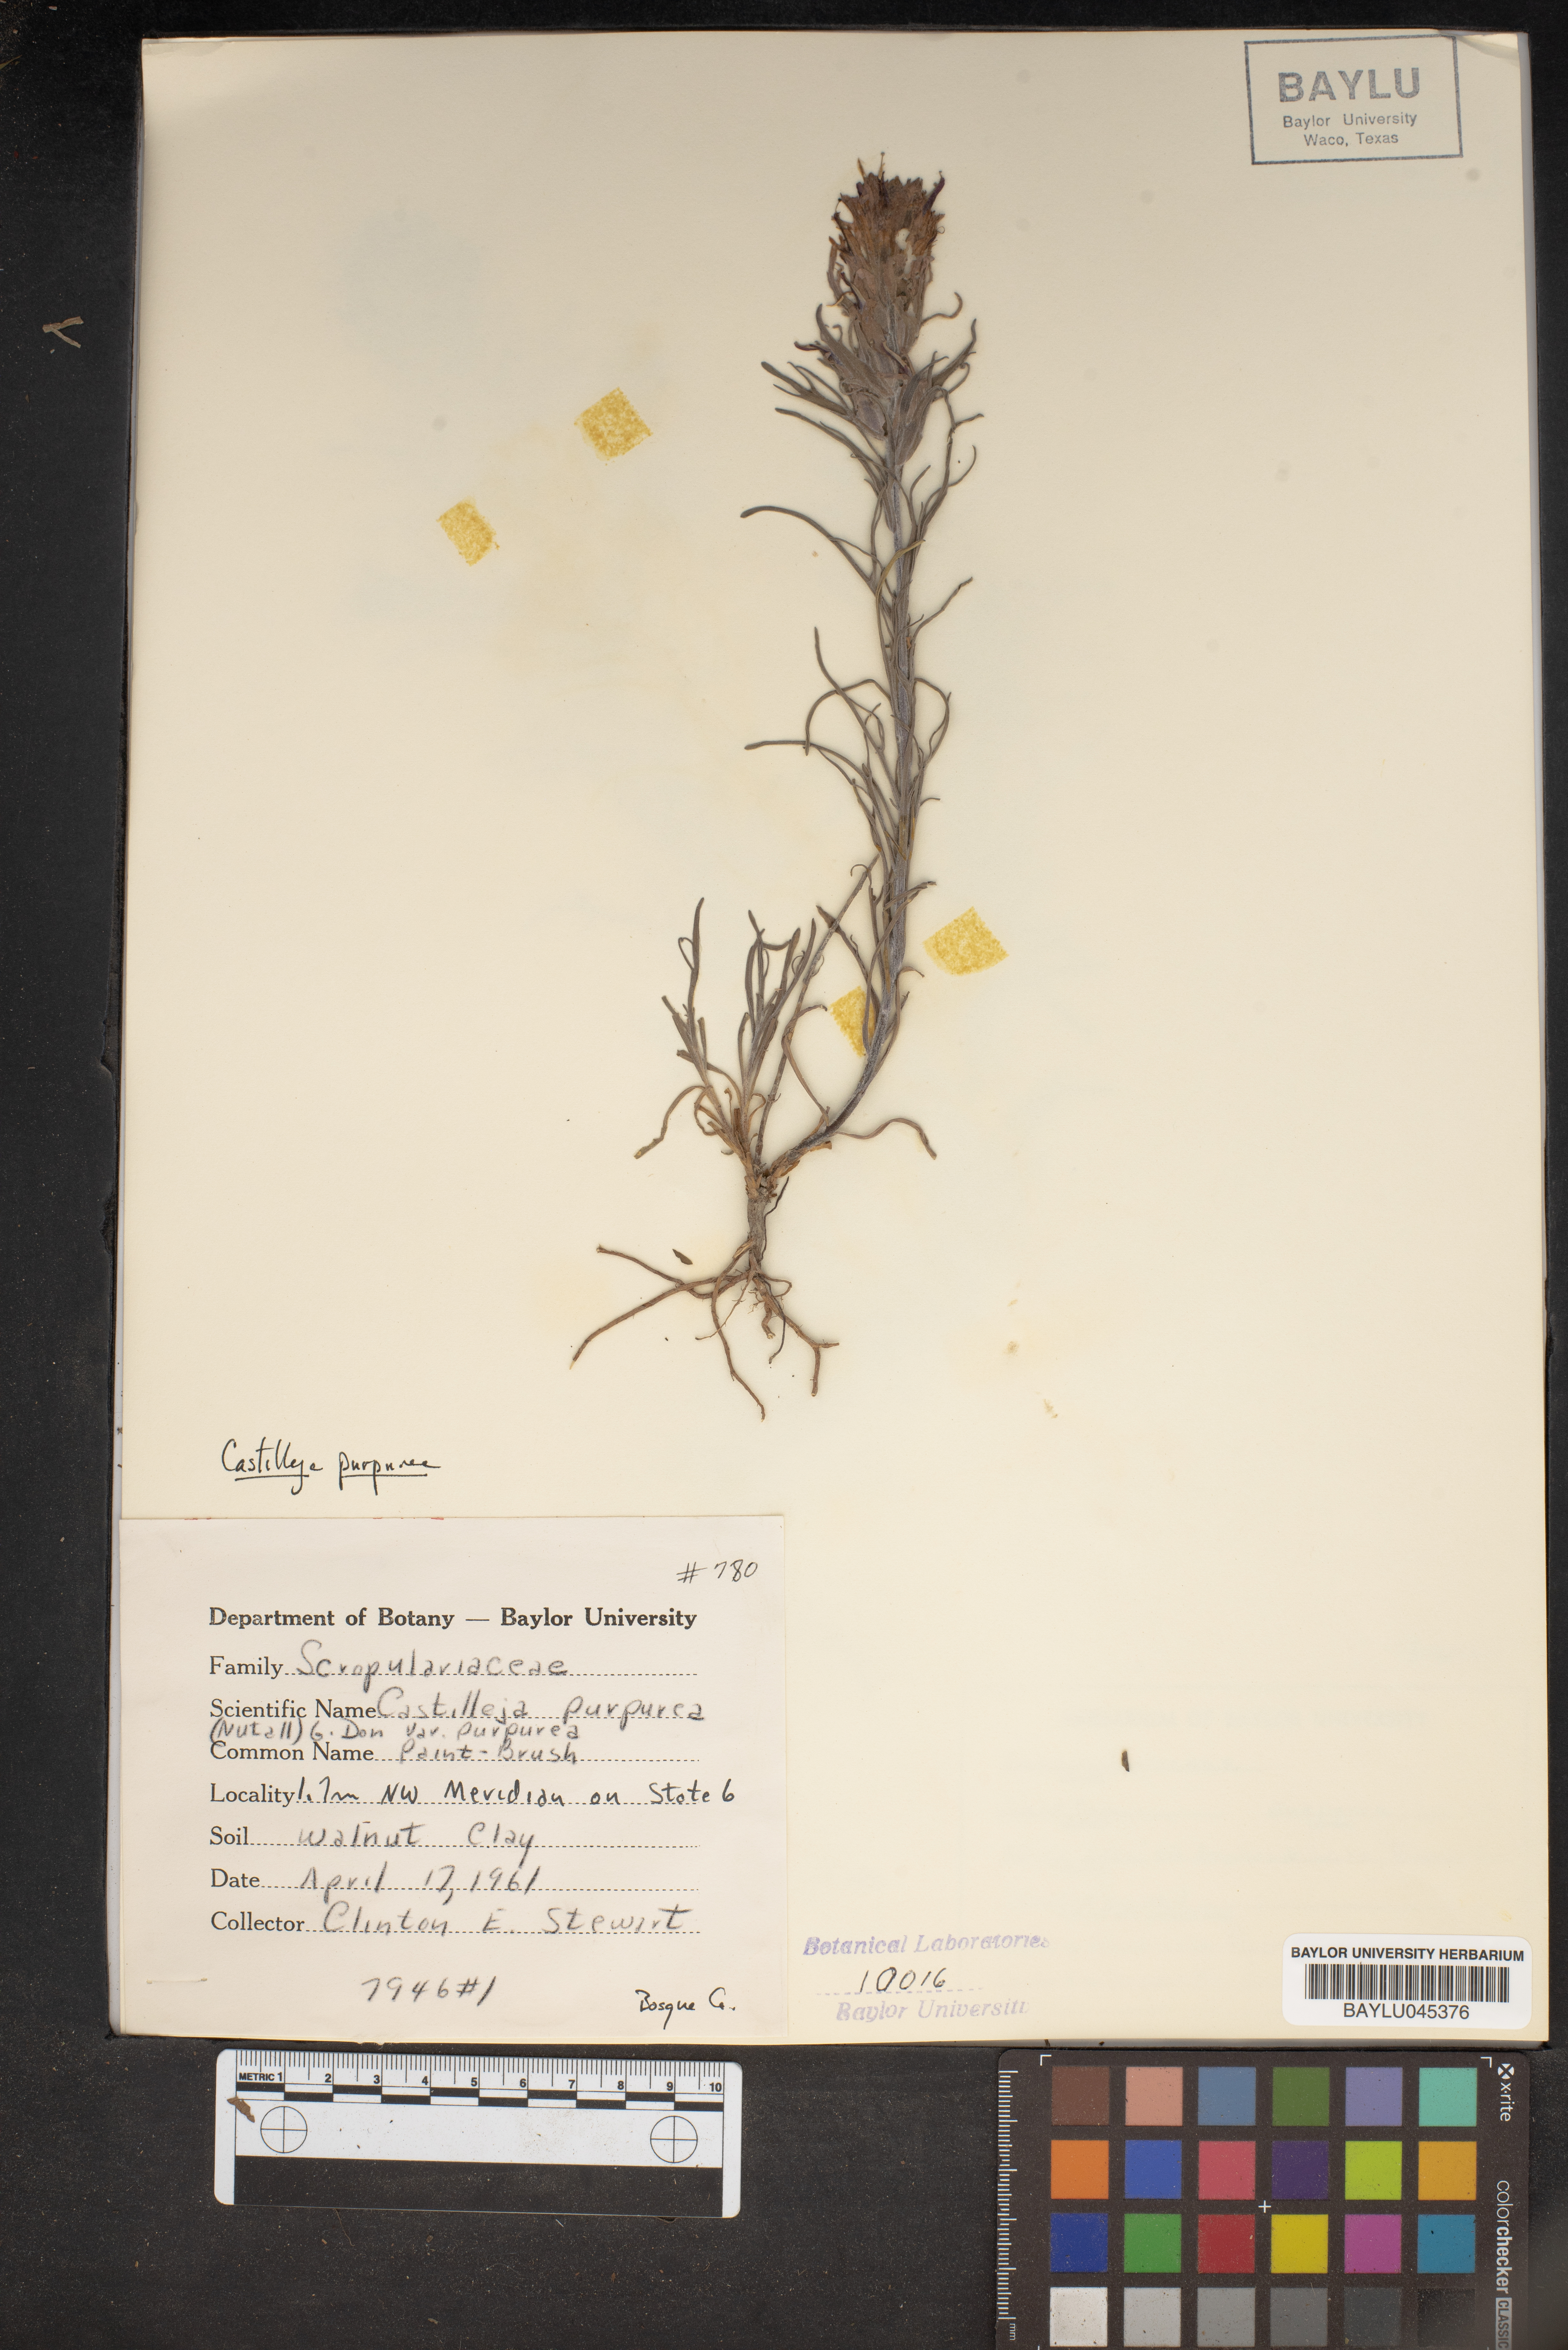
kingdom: Plantae
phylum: Tracheophyta
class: Magnoliopsida
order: Lamiales
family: Orobanchaceae
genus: Castilleja
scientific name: Castilleja purpurea
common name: Plains paintbrush
